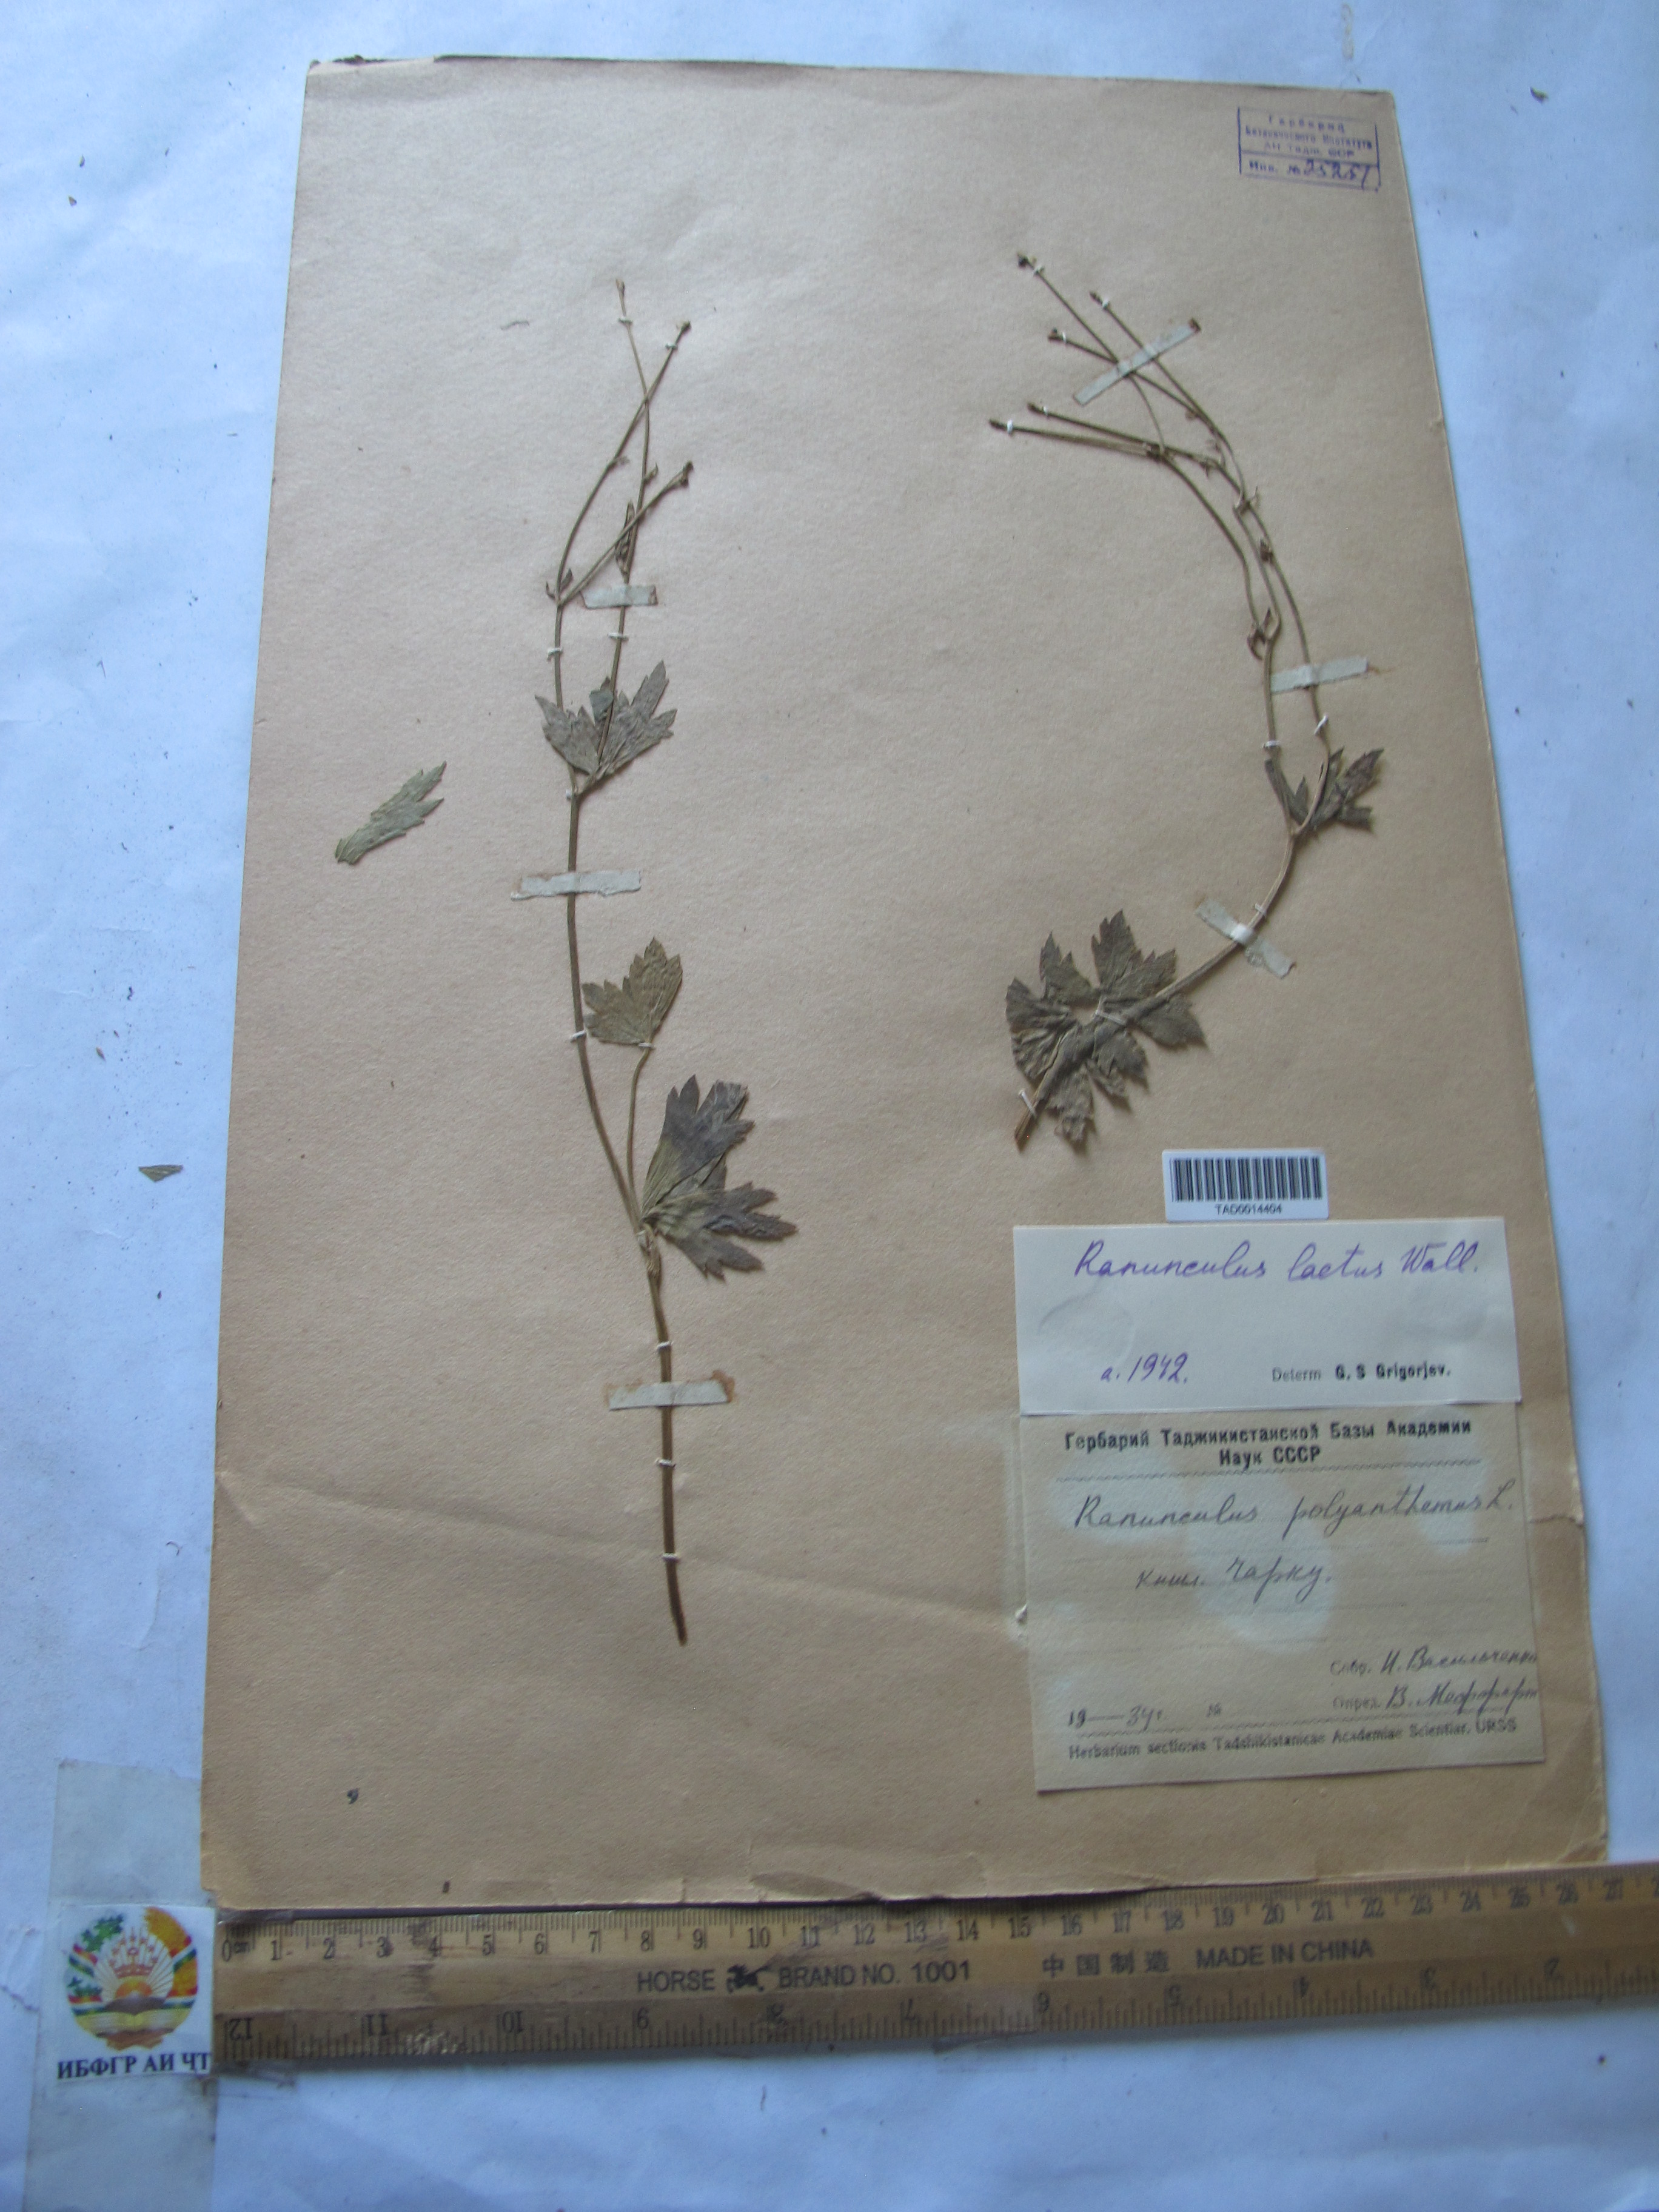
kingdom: Plantae
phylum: Tracheophyta
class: Magnoliopsida
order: Ranunculales
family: Ranunculaceae
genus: Ranunculus
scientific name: Ranunculus distans
